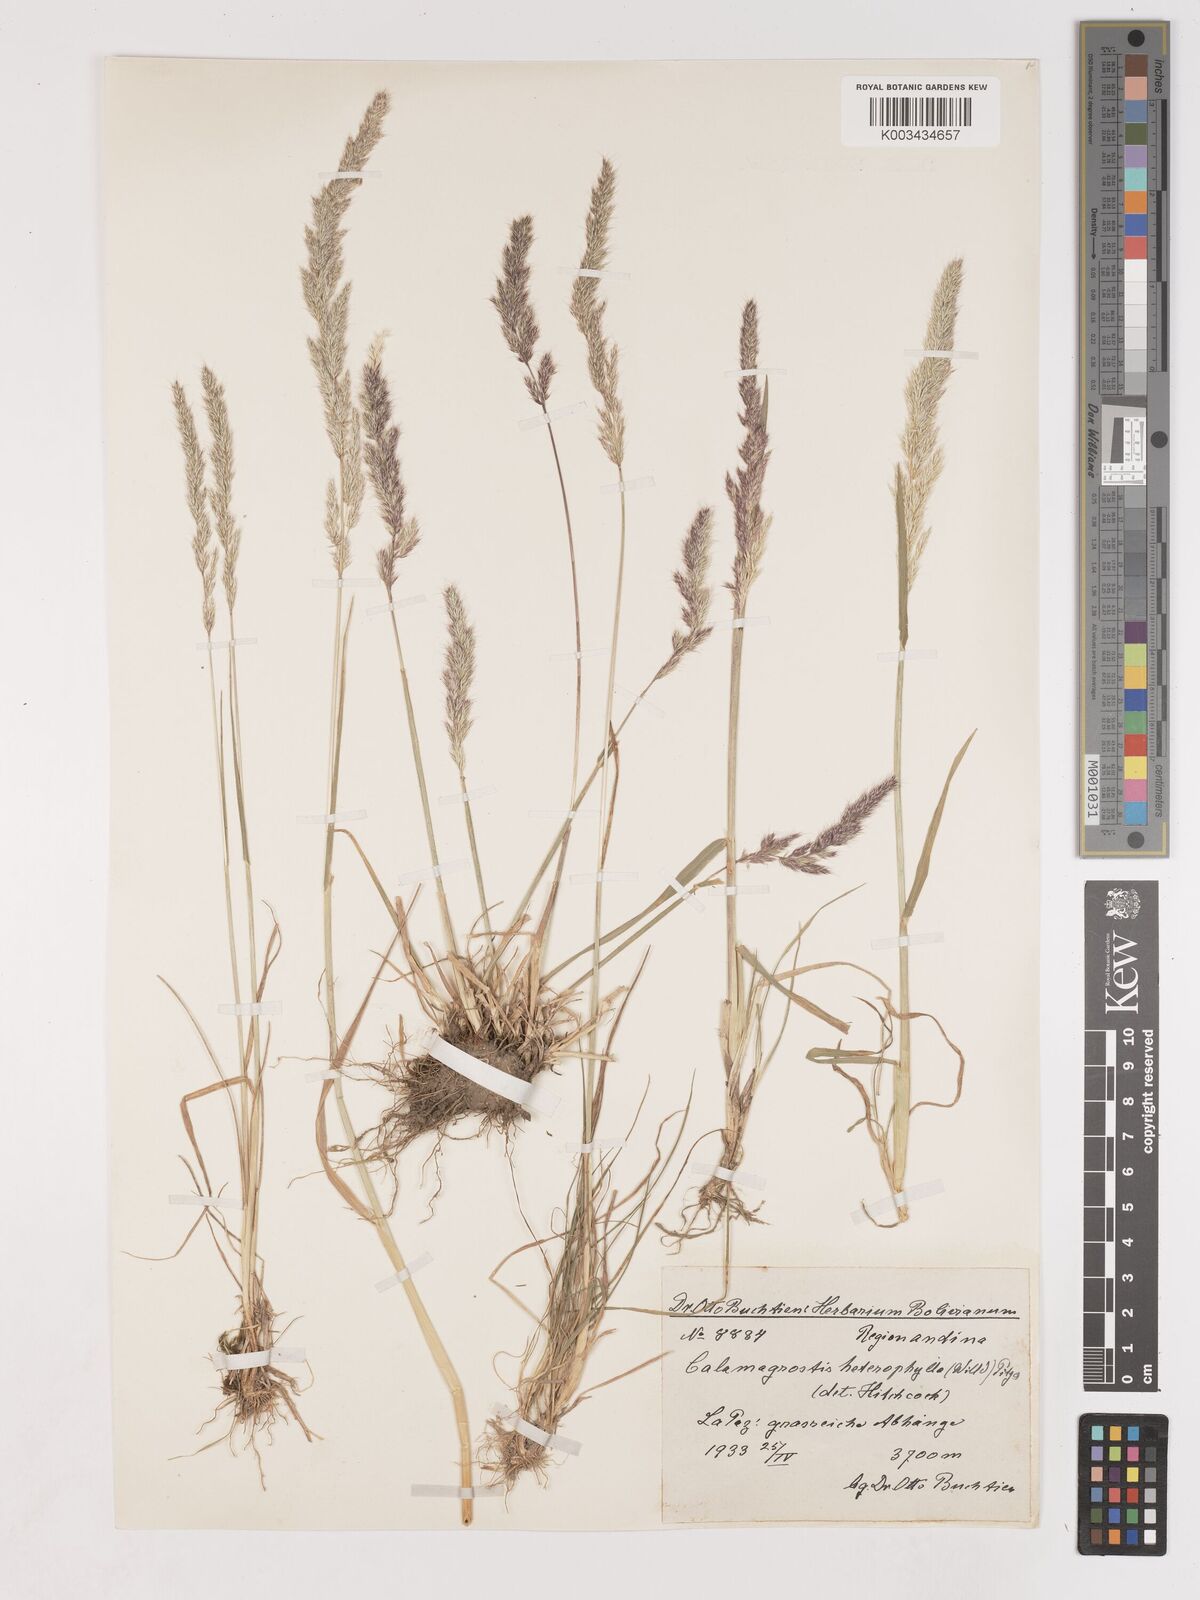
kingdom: Plantae
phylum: Tracheophyta
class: Liliopsida
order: Poales
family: Poaceae
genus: Cinnagrostis
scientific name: Cinnagrostis heterophylla
